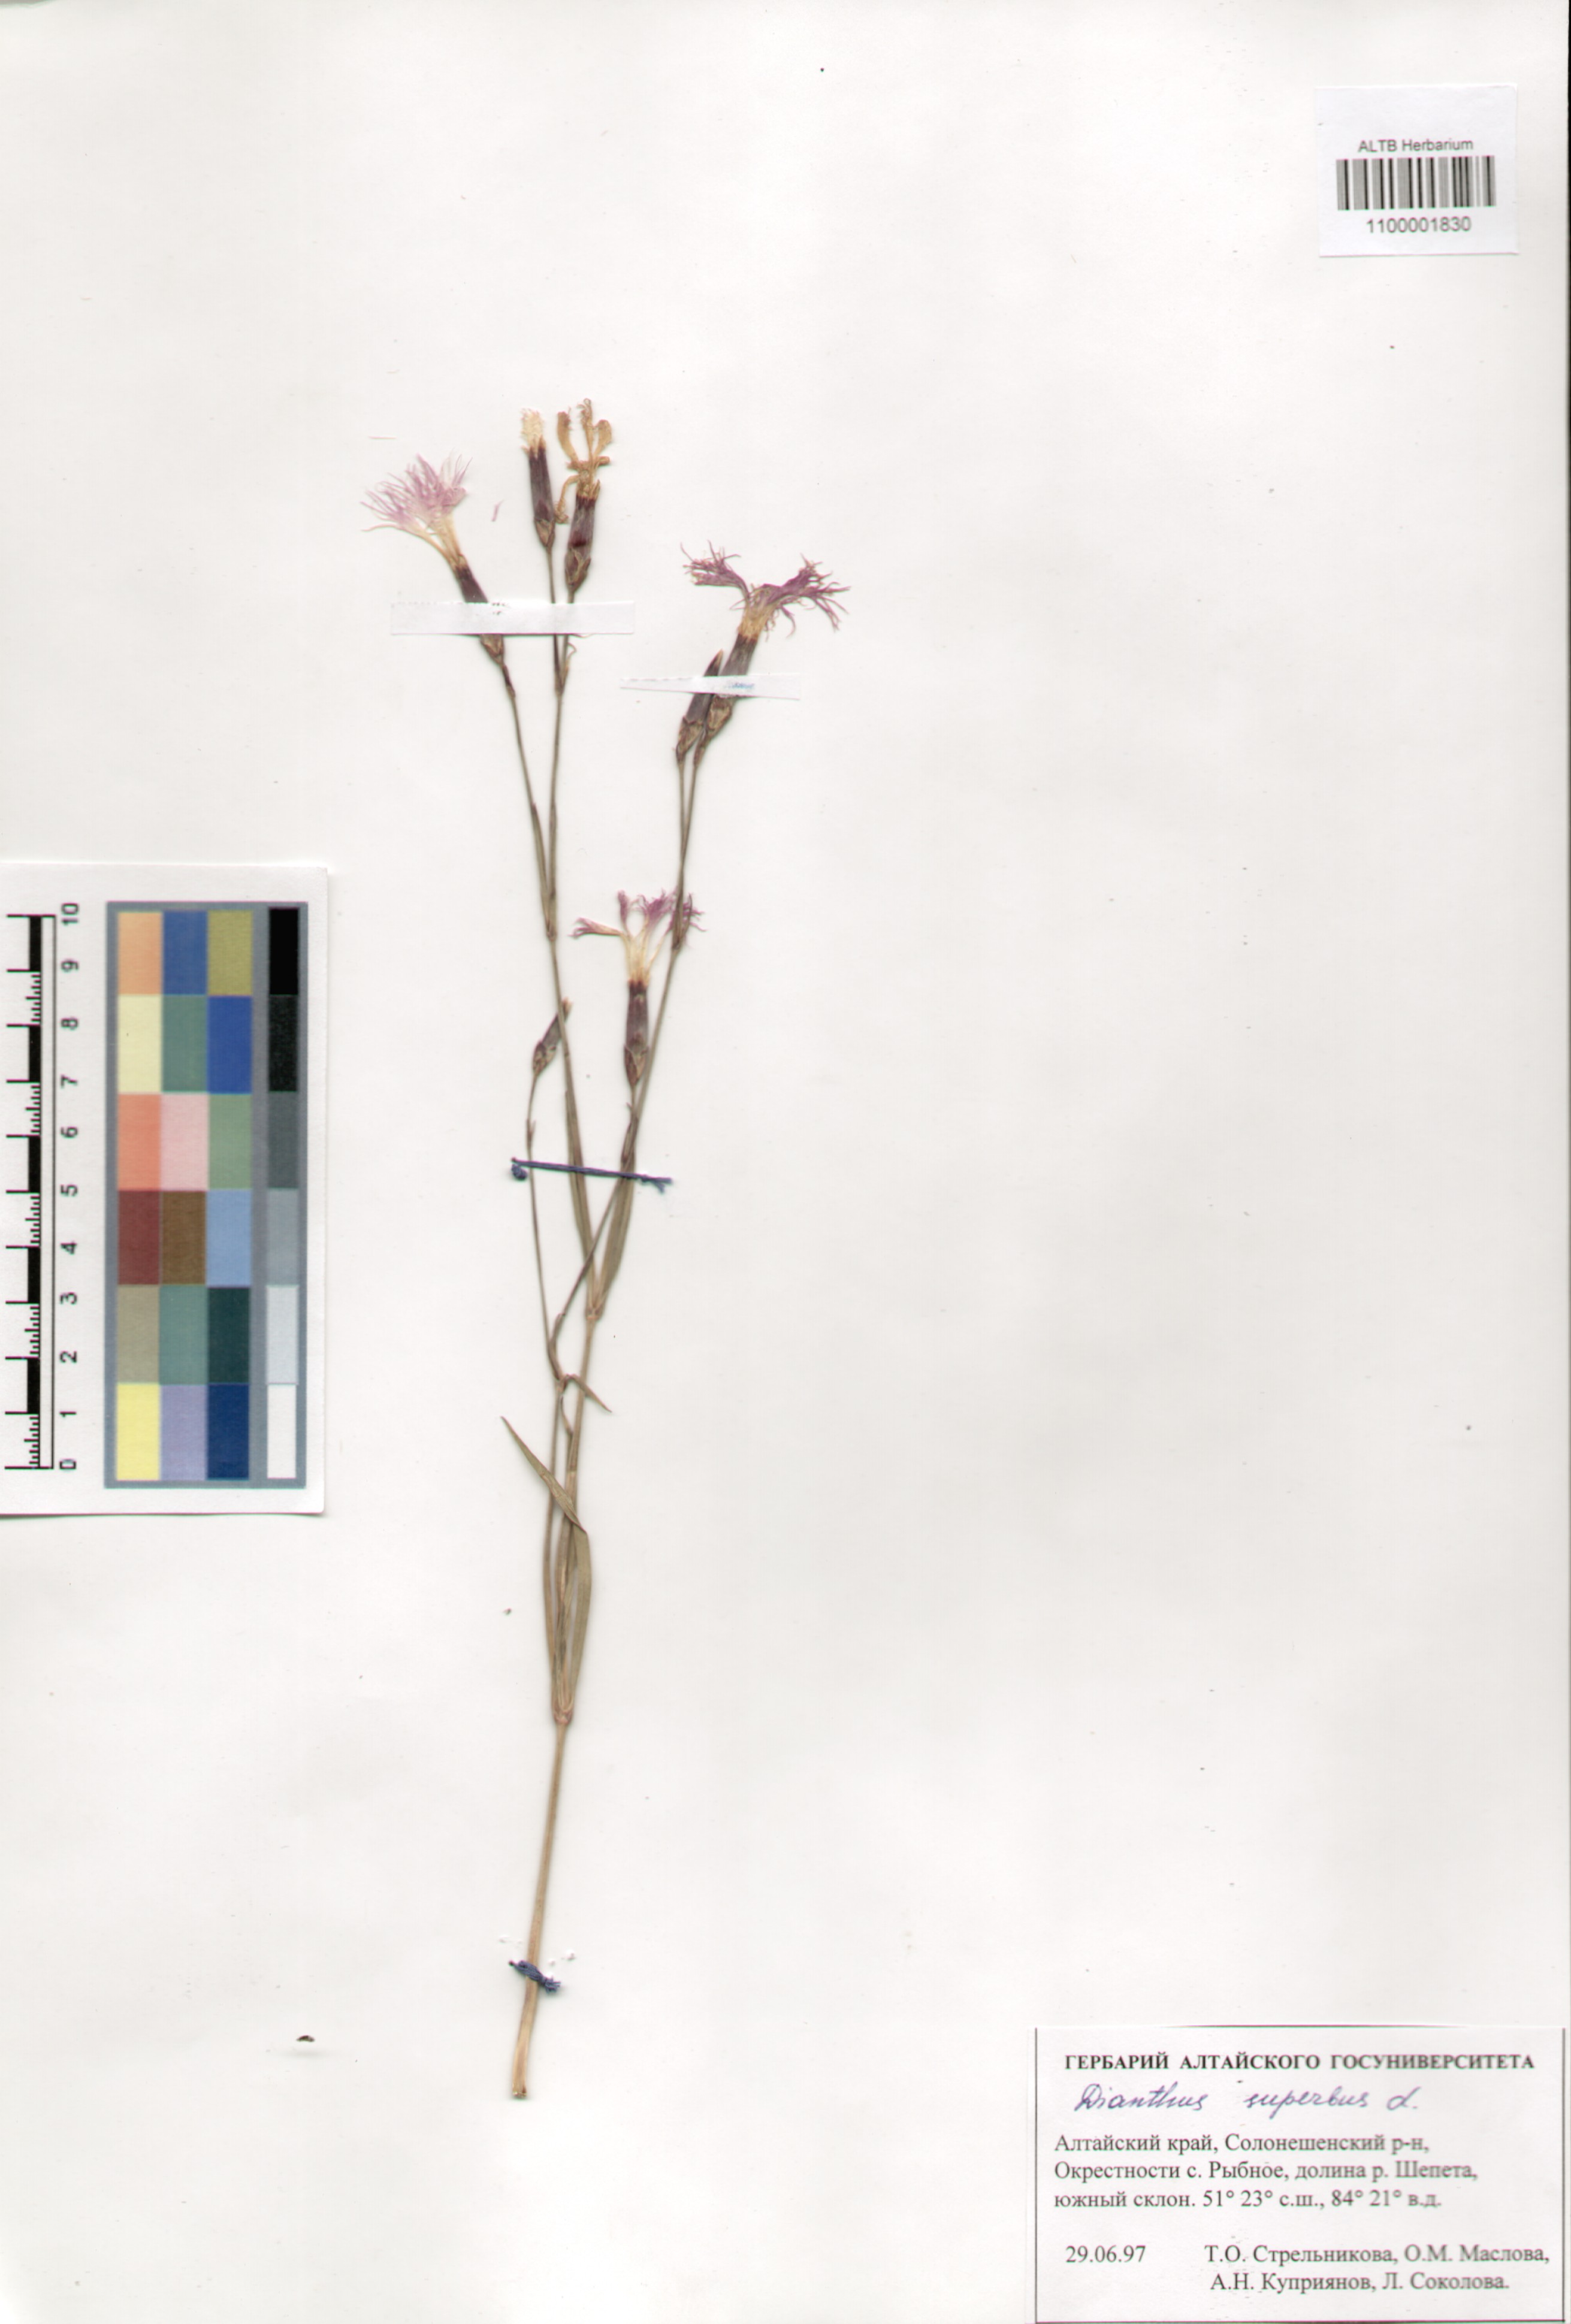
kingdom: Plantae
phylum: Tracheophyta
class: Magnoliopsida
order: Caryophyllales
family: Caryophyllaceae
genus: Dianthus
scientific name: Dianthus superbus
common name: Fringed pink
